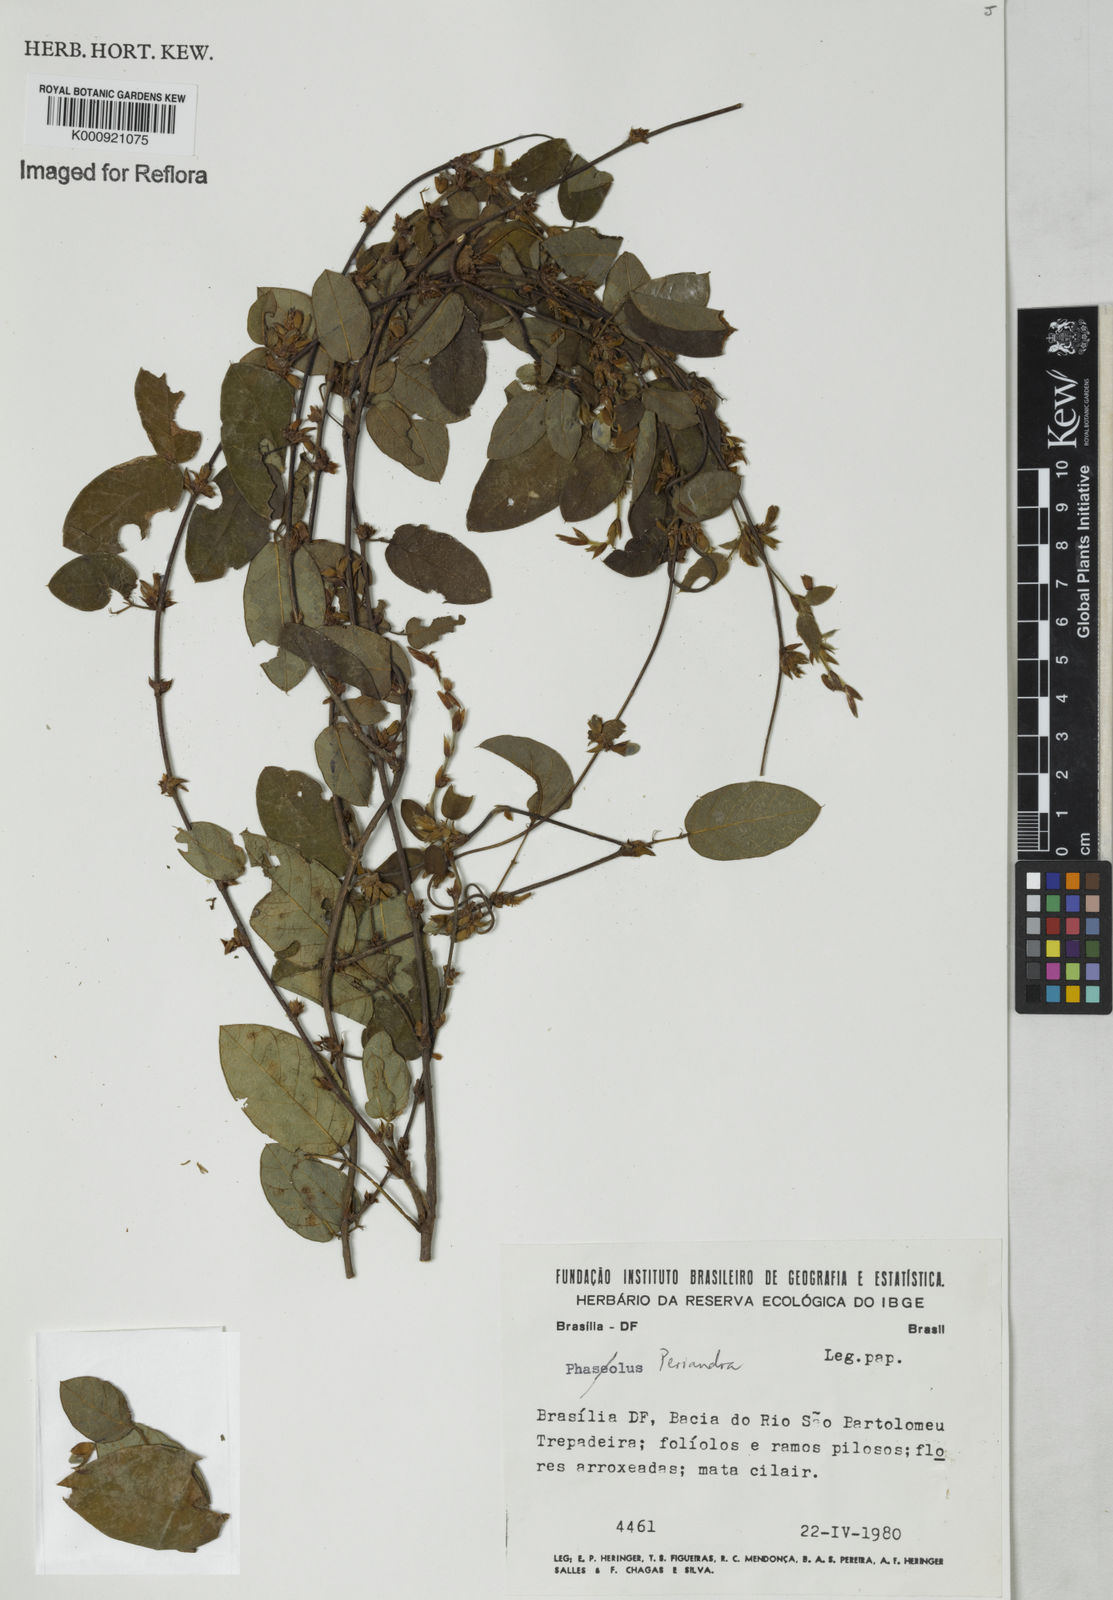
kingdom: Plantae
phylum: Tracheophyta
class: Magnoliopsida
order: Fabales
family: Fabaceae
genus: Periandra
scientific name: Periandra
